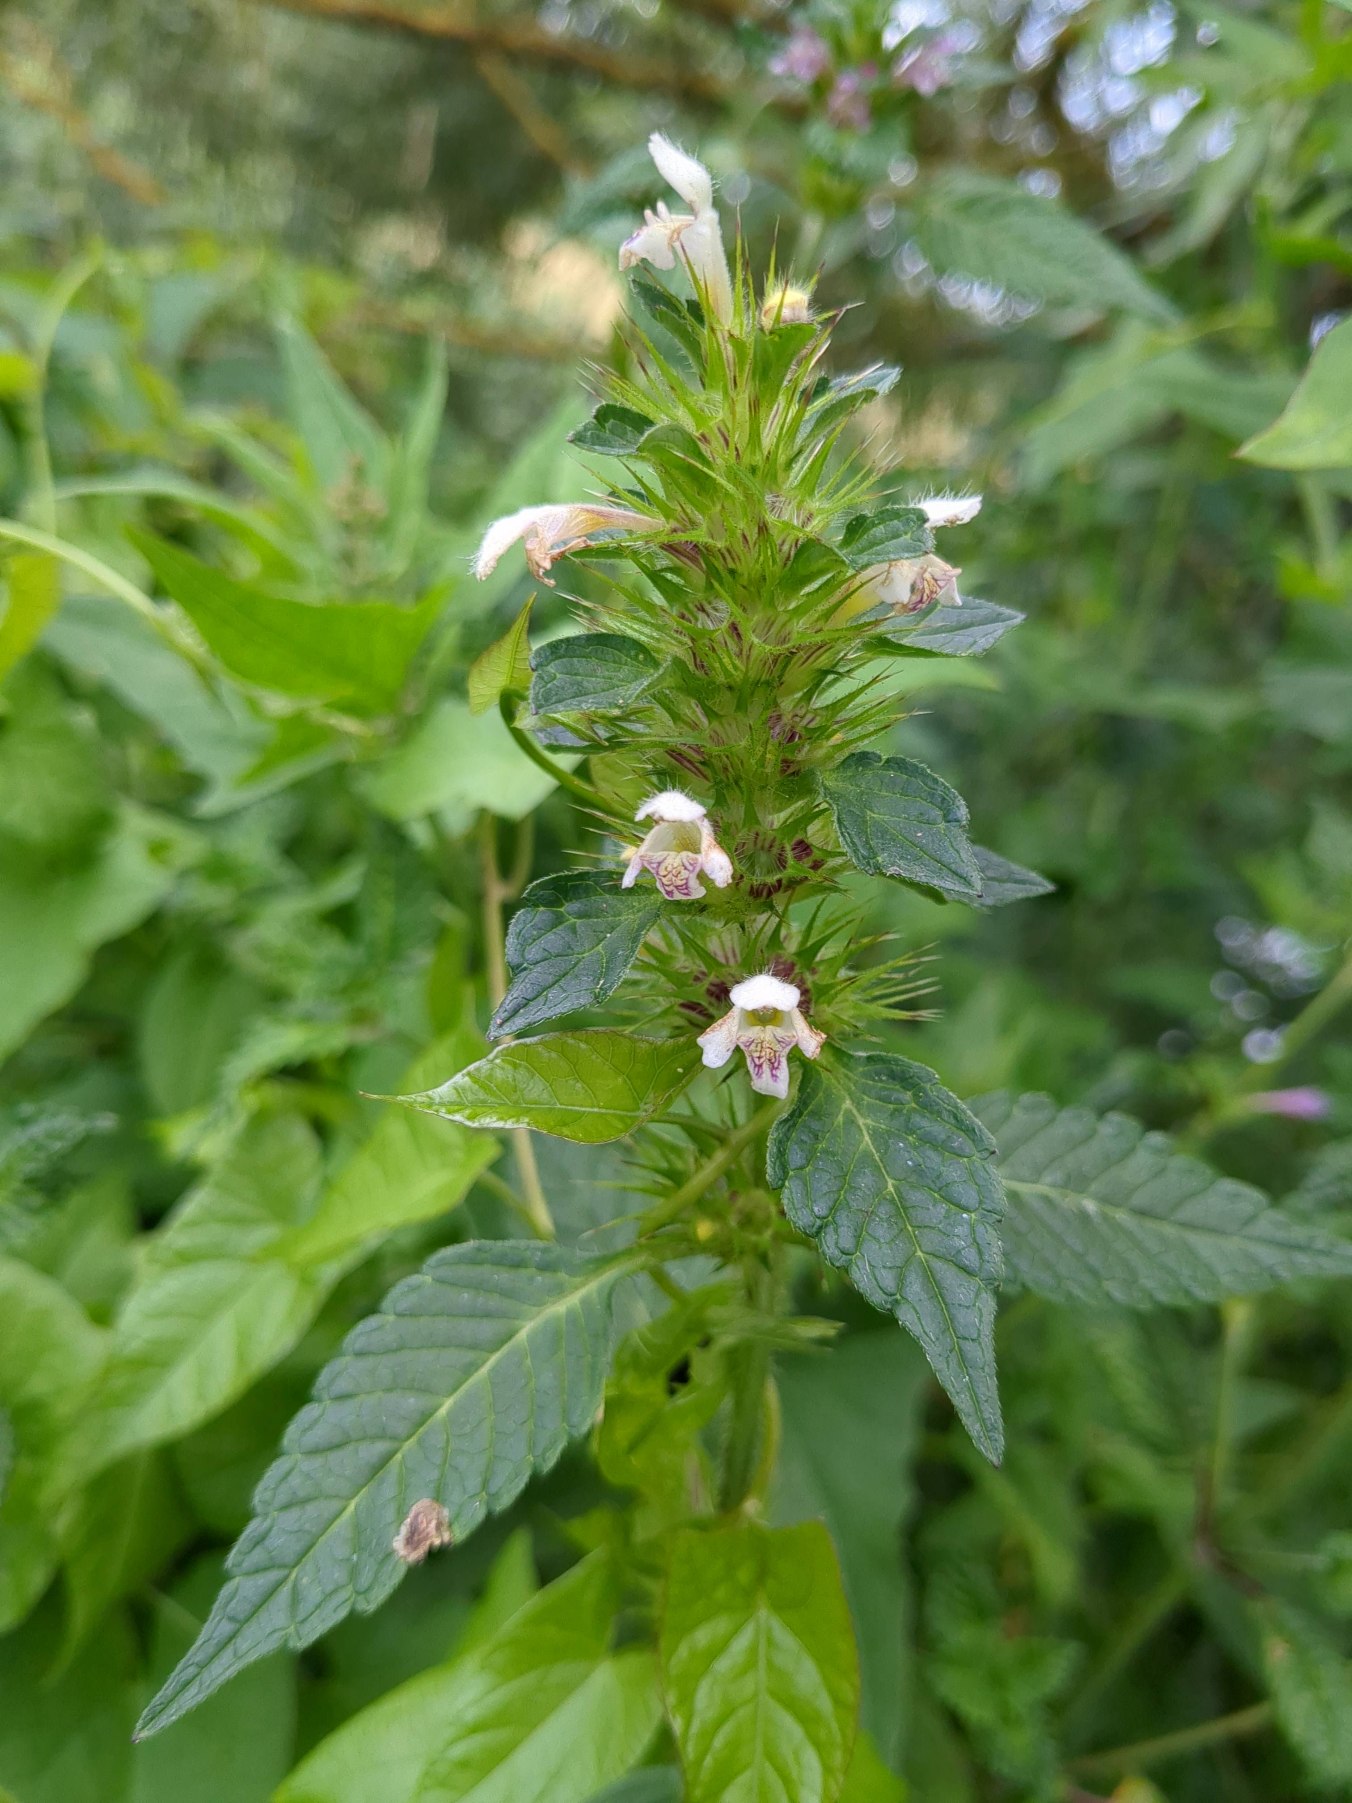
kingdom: Plantae
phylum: Tracheophyta
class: Magnoliopsida
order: Lamiales
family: Lamiaceae
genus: Galeopsis
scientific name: Galeopsis tetrahit
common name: Almindelig hanekro
